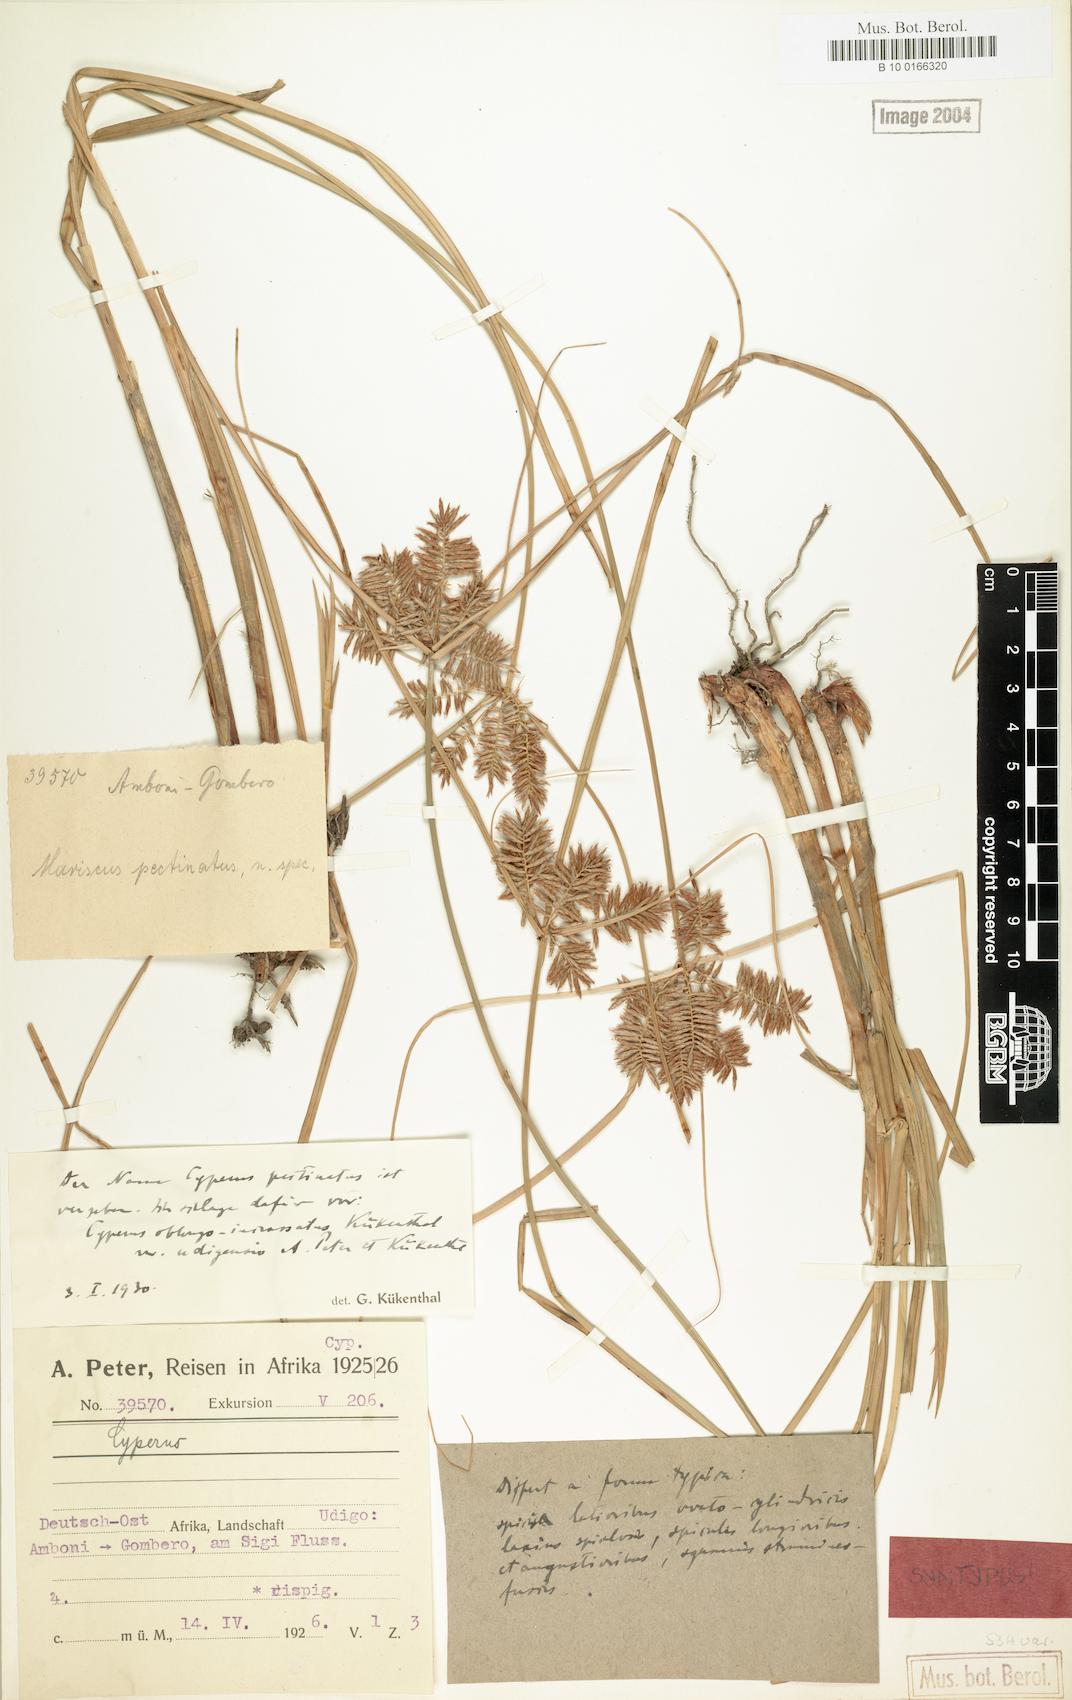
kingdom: Plantae
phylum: Tracheophyta
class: Liliopsida
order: Poales
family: Cyperaceae
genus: Cyperus
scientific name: Cyperus oblongoincrassatus
